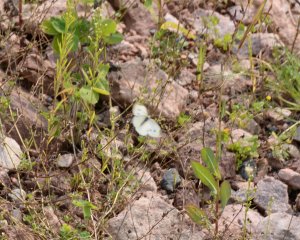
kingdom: Animalia
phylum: Arthropoda
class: Insecta
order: Lepidoptera
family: Pieridae
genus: Pieris
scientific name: Pieris rapae
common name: Cabbage White
